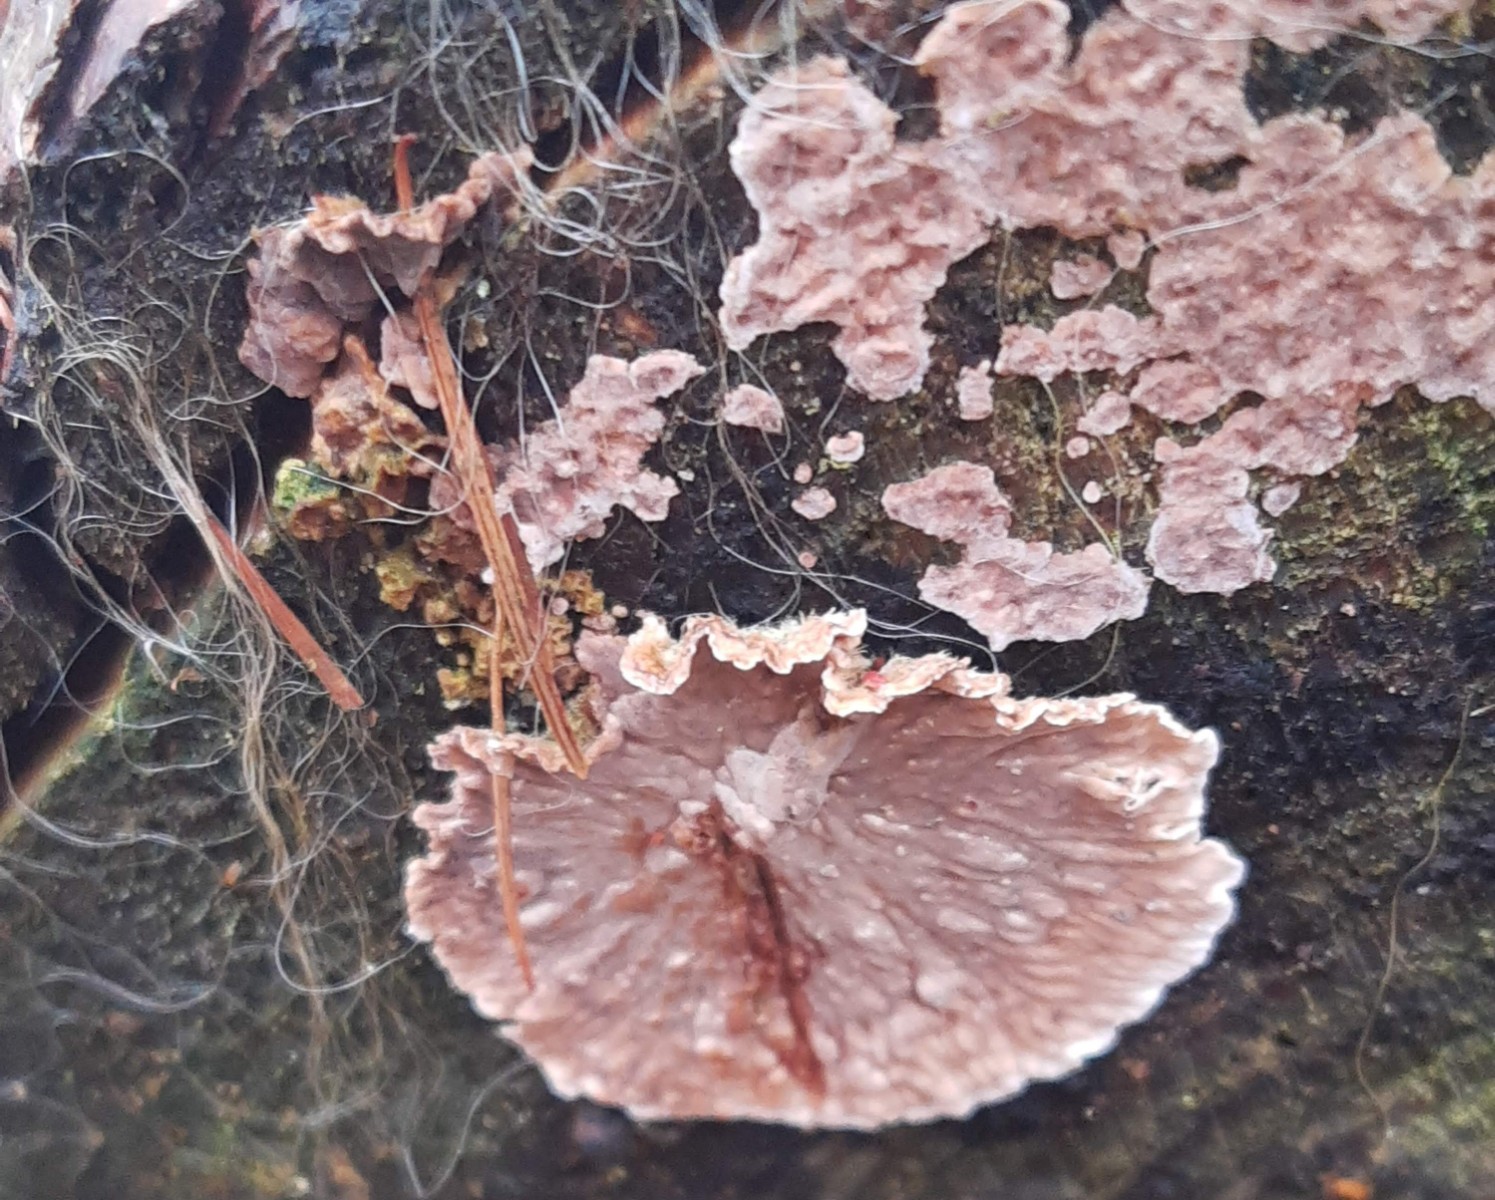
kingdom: Fungi
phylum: Basidiomycota
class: Agaricomycetes
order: Russulales
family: Stereaceae
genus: Stereum
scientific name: Stereum sanguinolentum
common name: blødende lædersvamp
